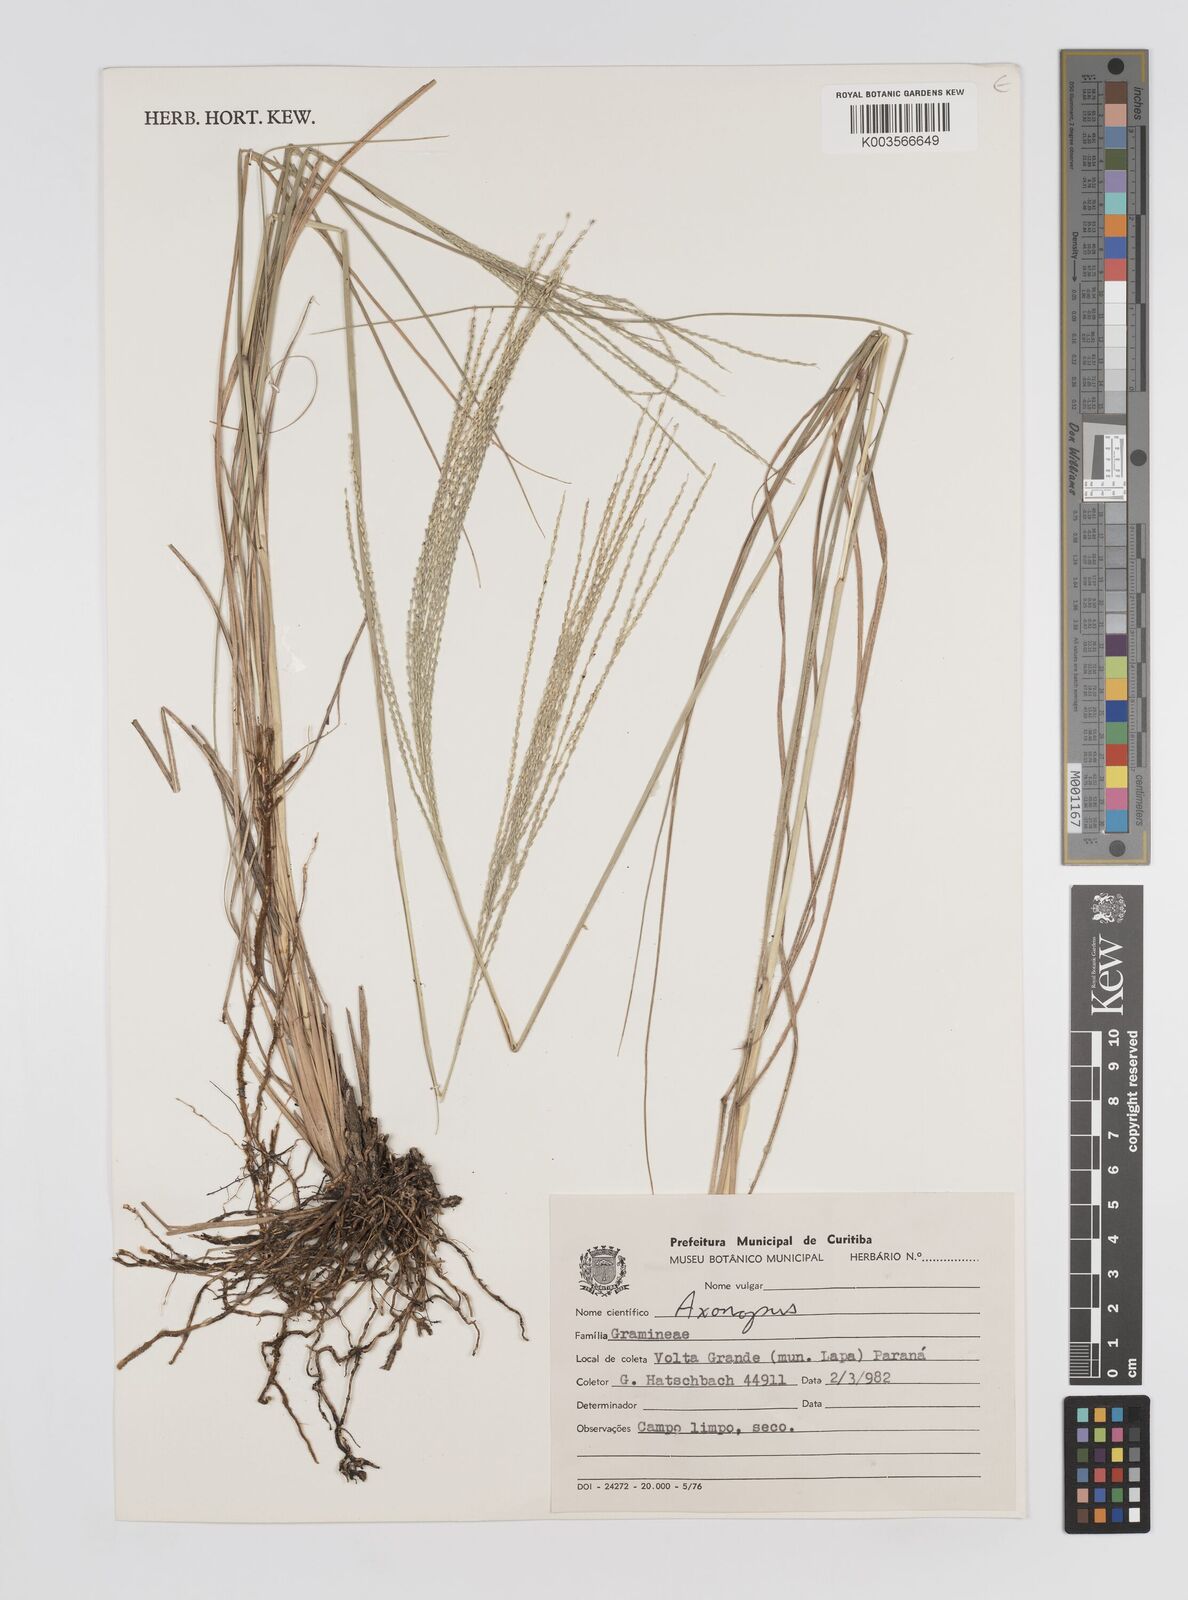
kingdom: Plantae
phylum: Tracheophyta
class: Liliopsida
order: Poales
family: Poaceae
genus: Axonopus
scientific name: Axonopus siccus
